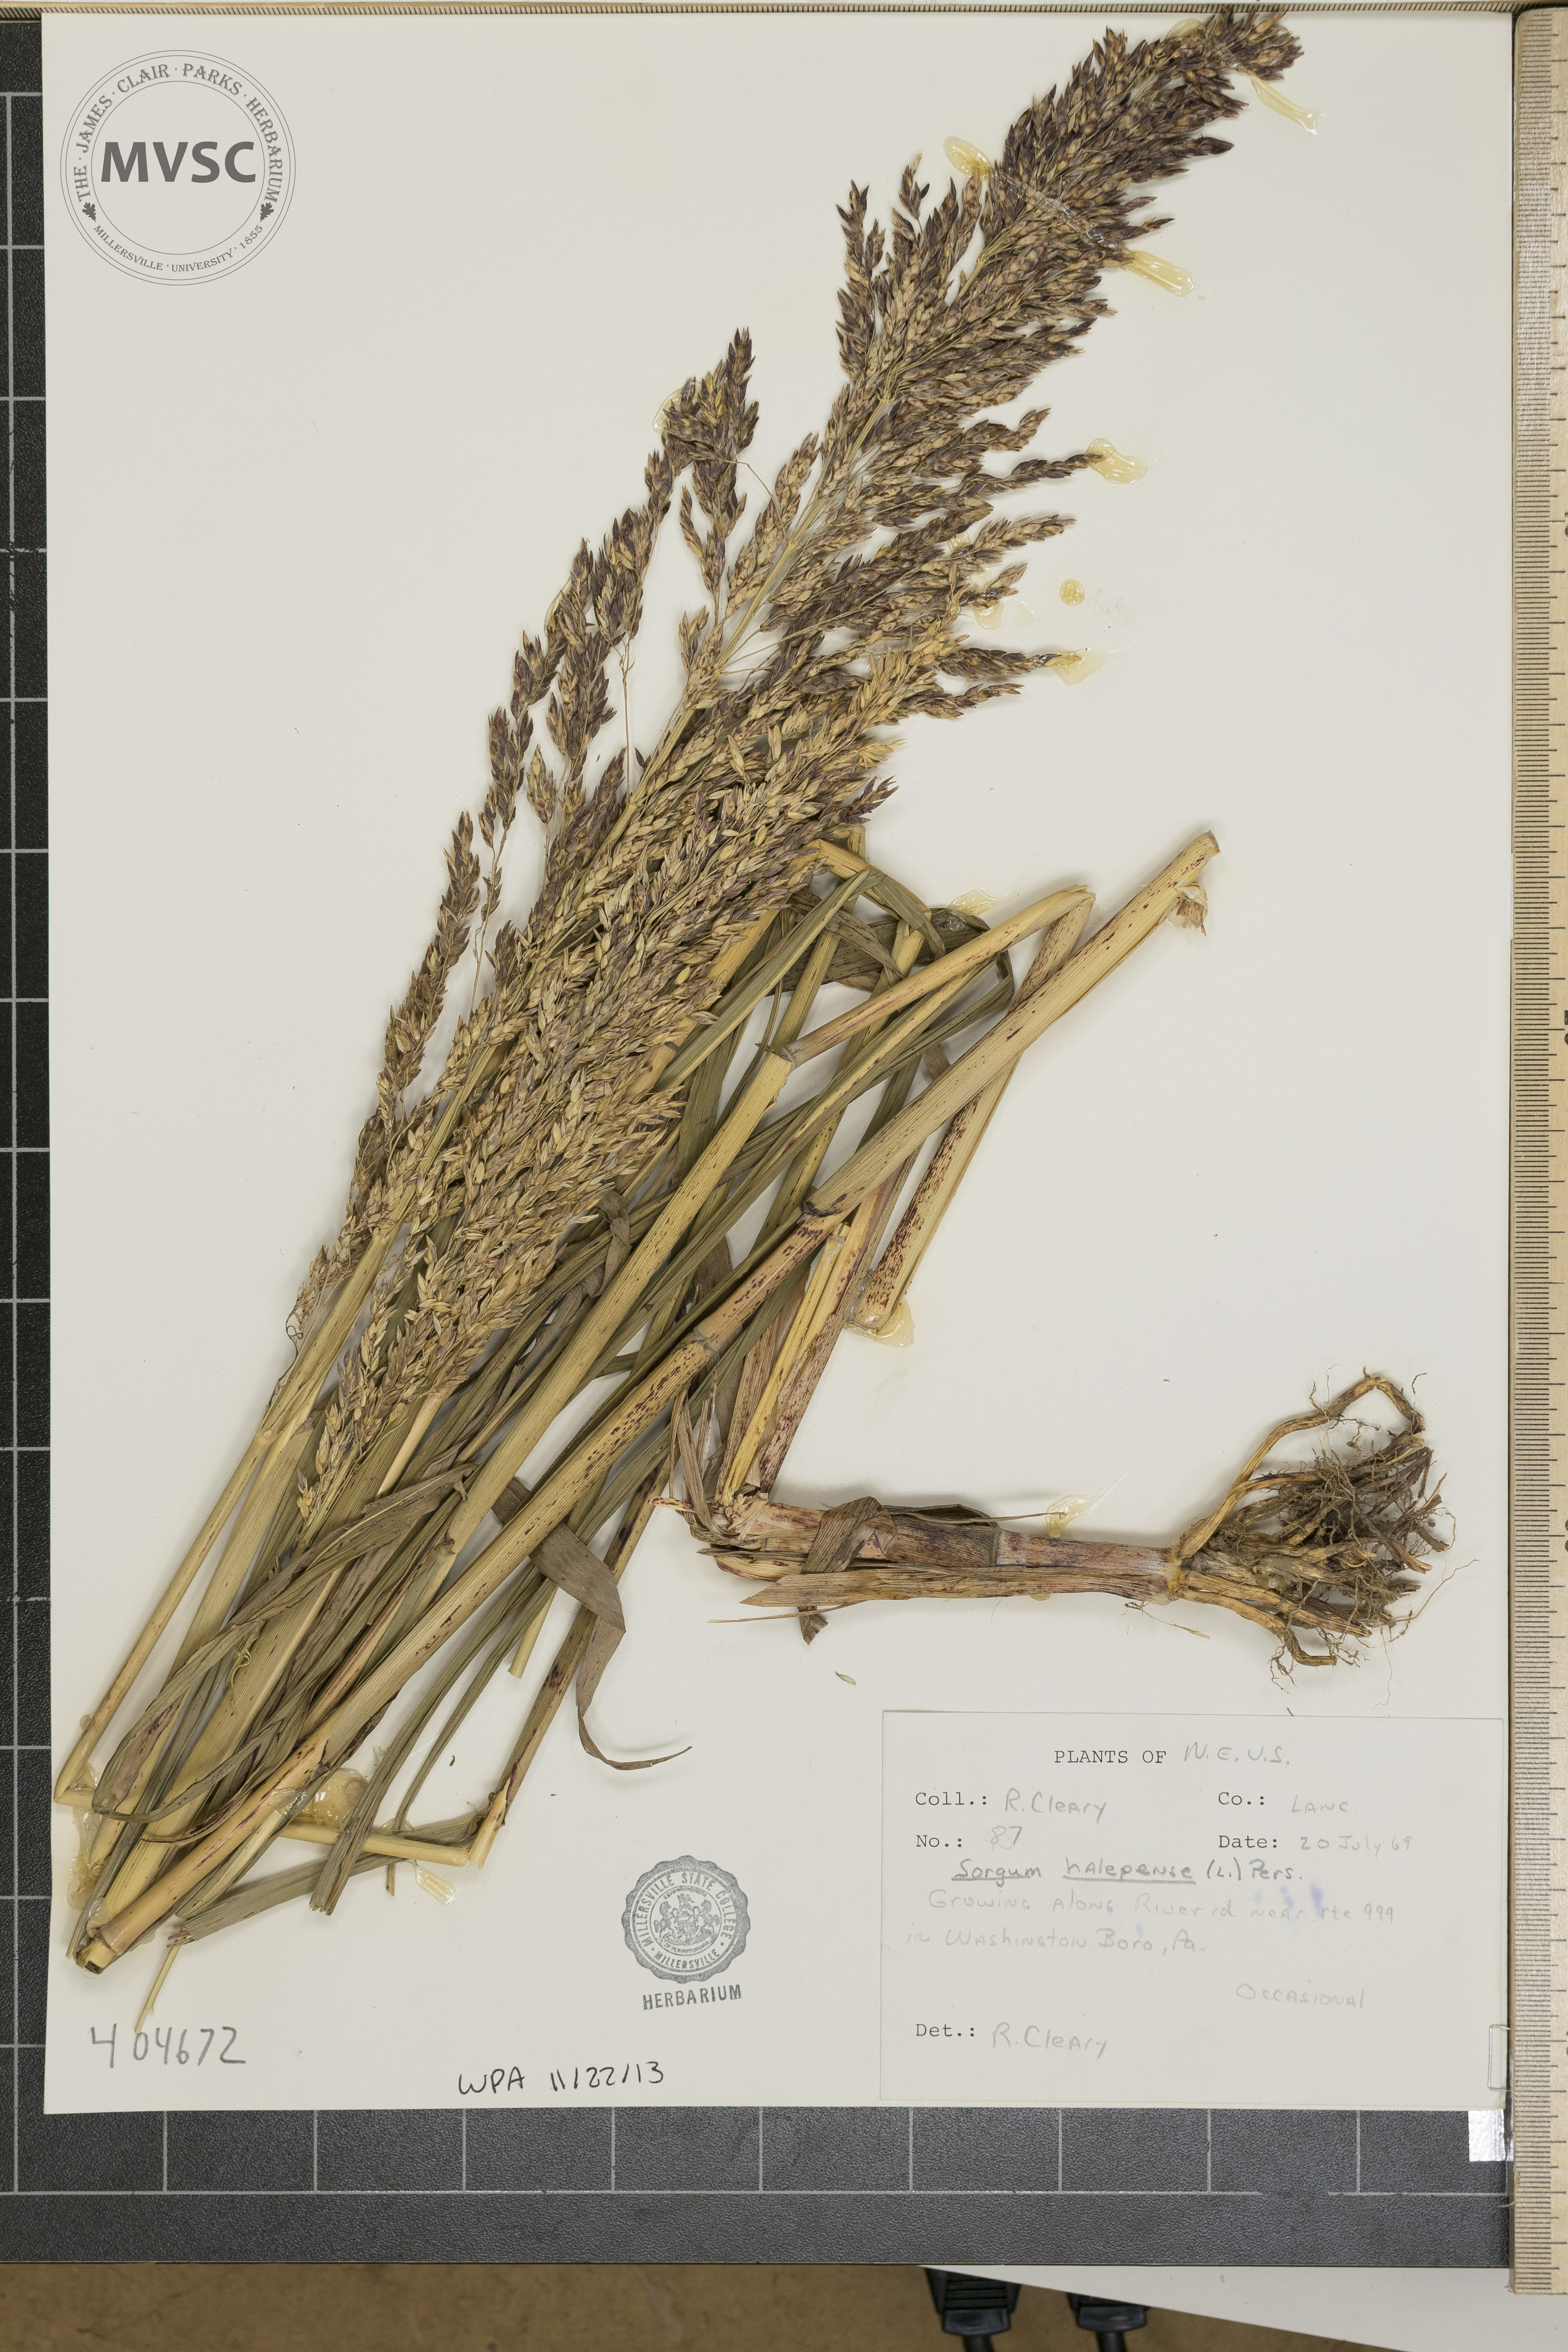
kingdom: Plantae
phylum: Tracheophyta
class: Liliopsida
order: Poales
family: Poaceae
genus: Sorghum
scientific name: Sorghum halepense
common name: Johnson-grass
